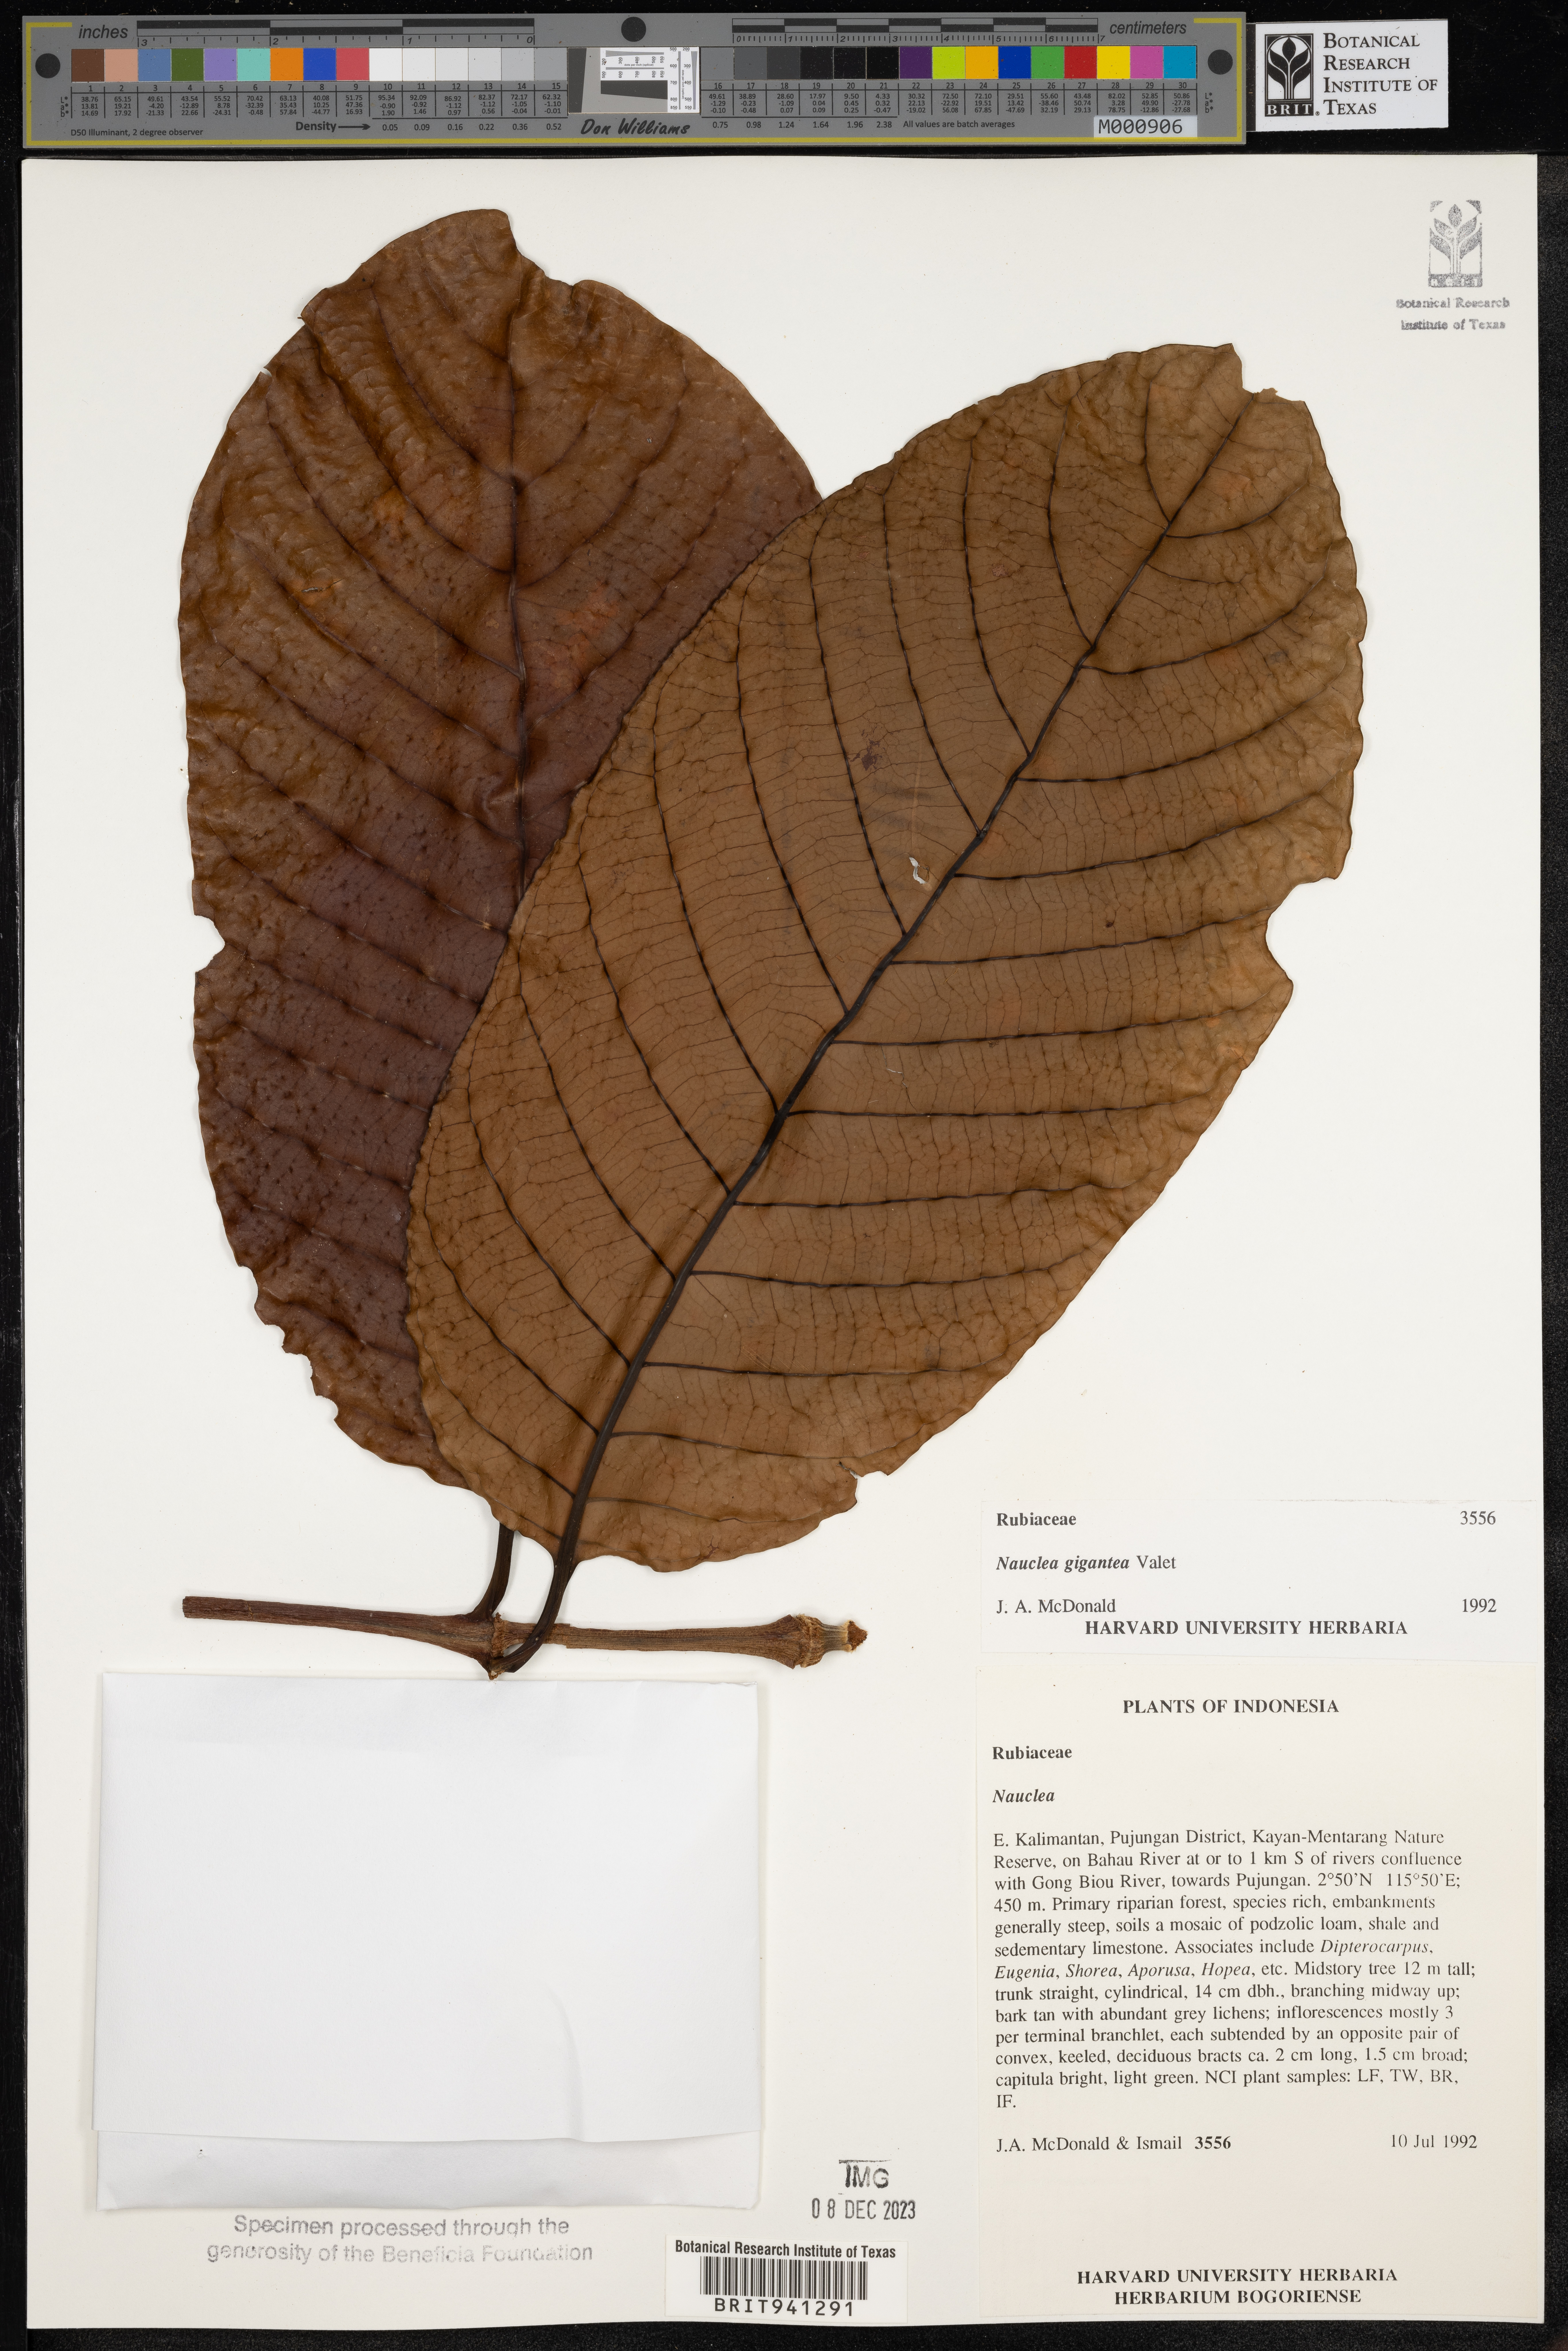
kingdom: Plantae
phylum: Tracheophyta
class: Magnoliopsida
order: Gentianales
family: Rubiaceae
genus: Nauclea
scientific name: Nauclea
